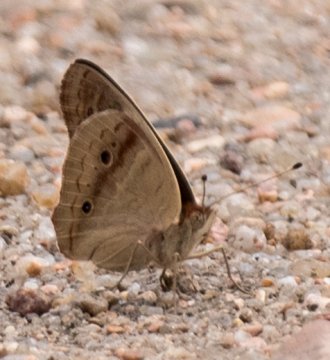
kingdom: Animalia
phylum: Arthropoda
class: Insecta
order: Lepidoptera
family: Nymphalidae
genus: Junonia
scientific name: Junonia coenia
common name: Common Buckeye
